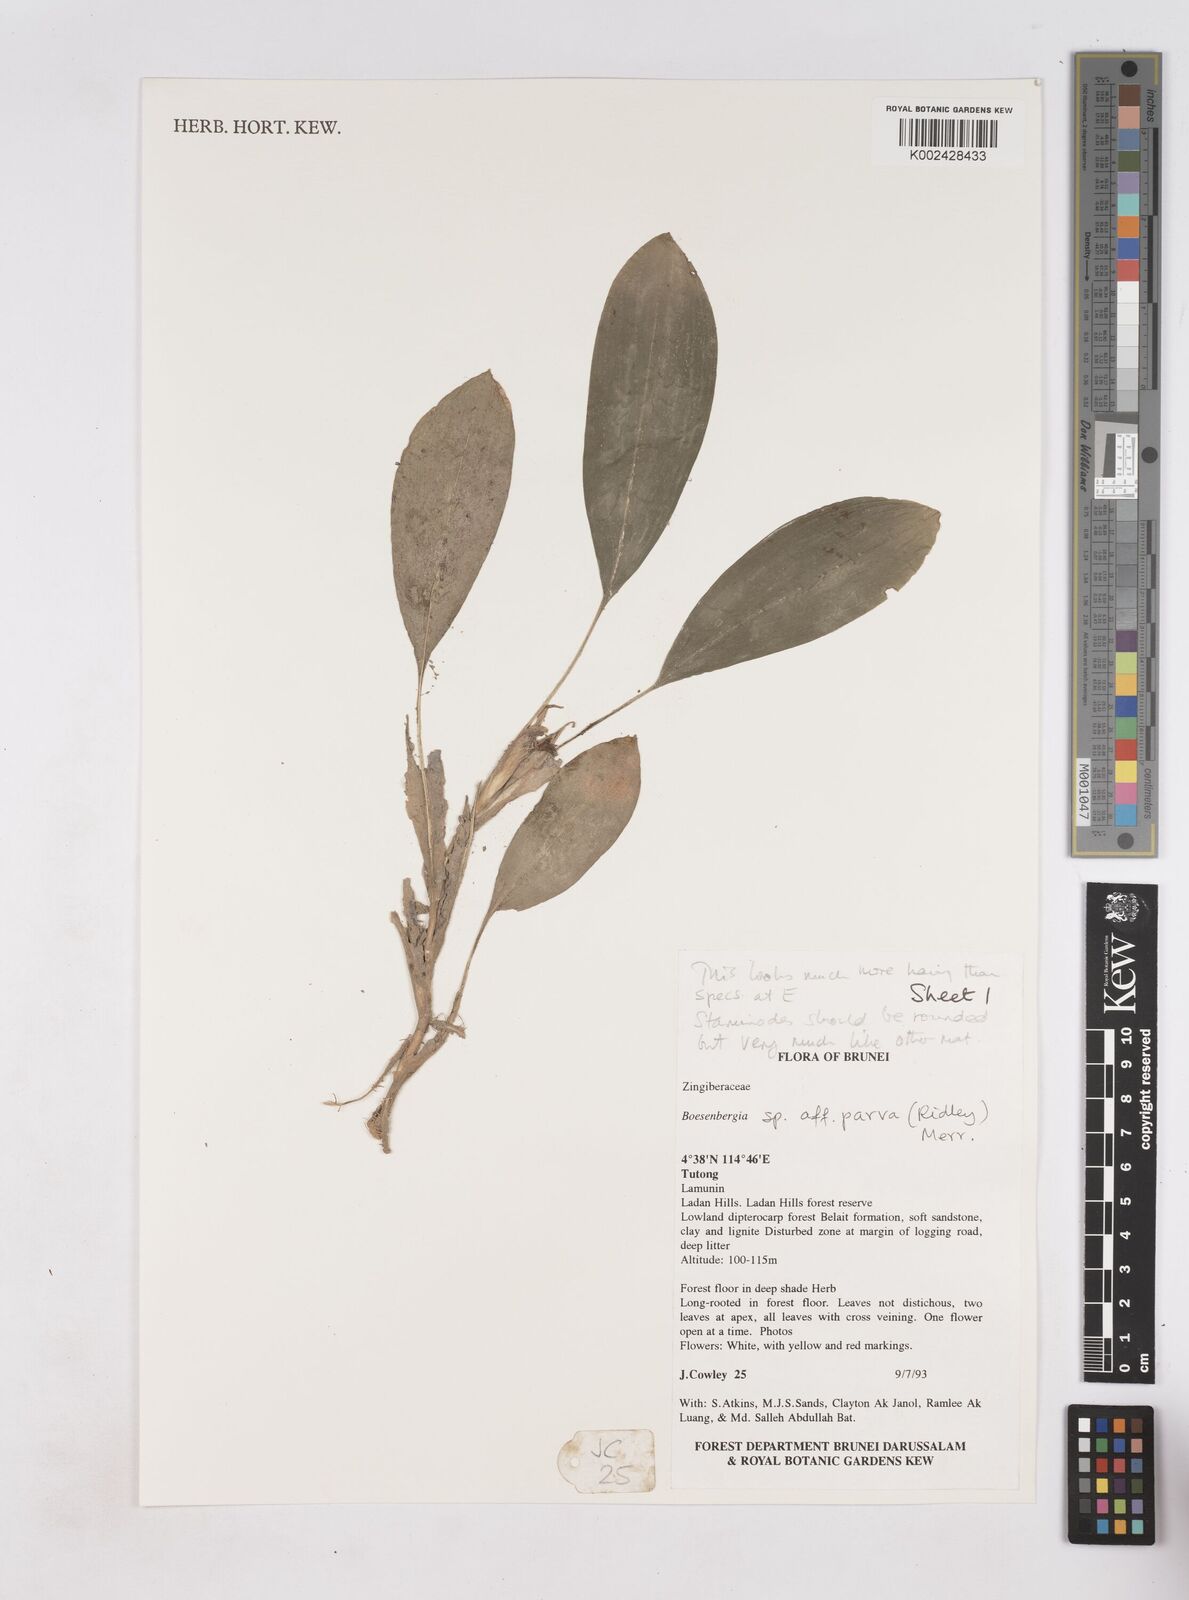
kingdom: Plantae
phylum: Tracheophyta
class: Liliopsida
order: Zingiberales
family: Zingiberaceae
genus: Boesenbergia
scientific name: Boesenbergia parva
